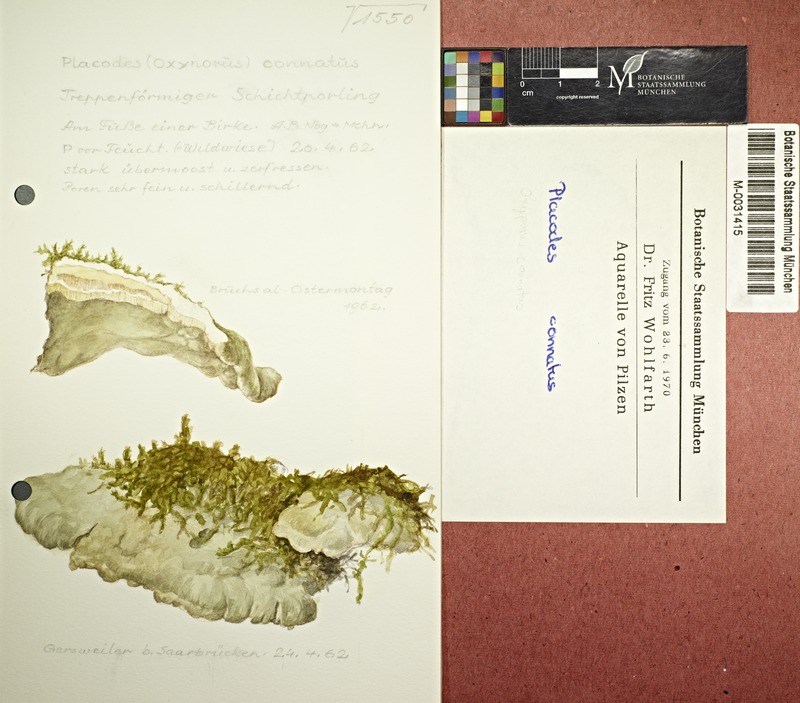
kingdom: Fungi
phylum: Basidiomycota
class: Agaricomycetes
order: Hymenochaetales
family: Oxyporaceae
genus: Oxyporus
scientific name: Oxyporus populinus
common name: Poplar bracket
